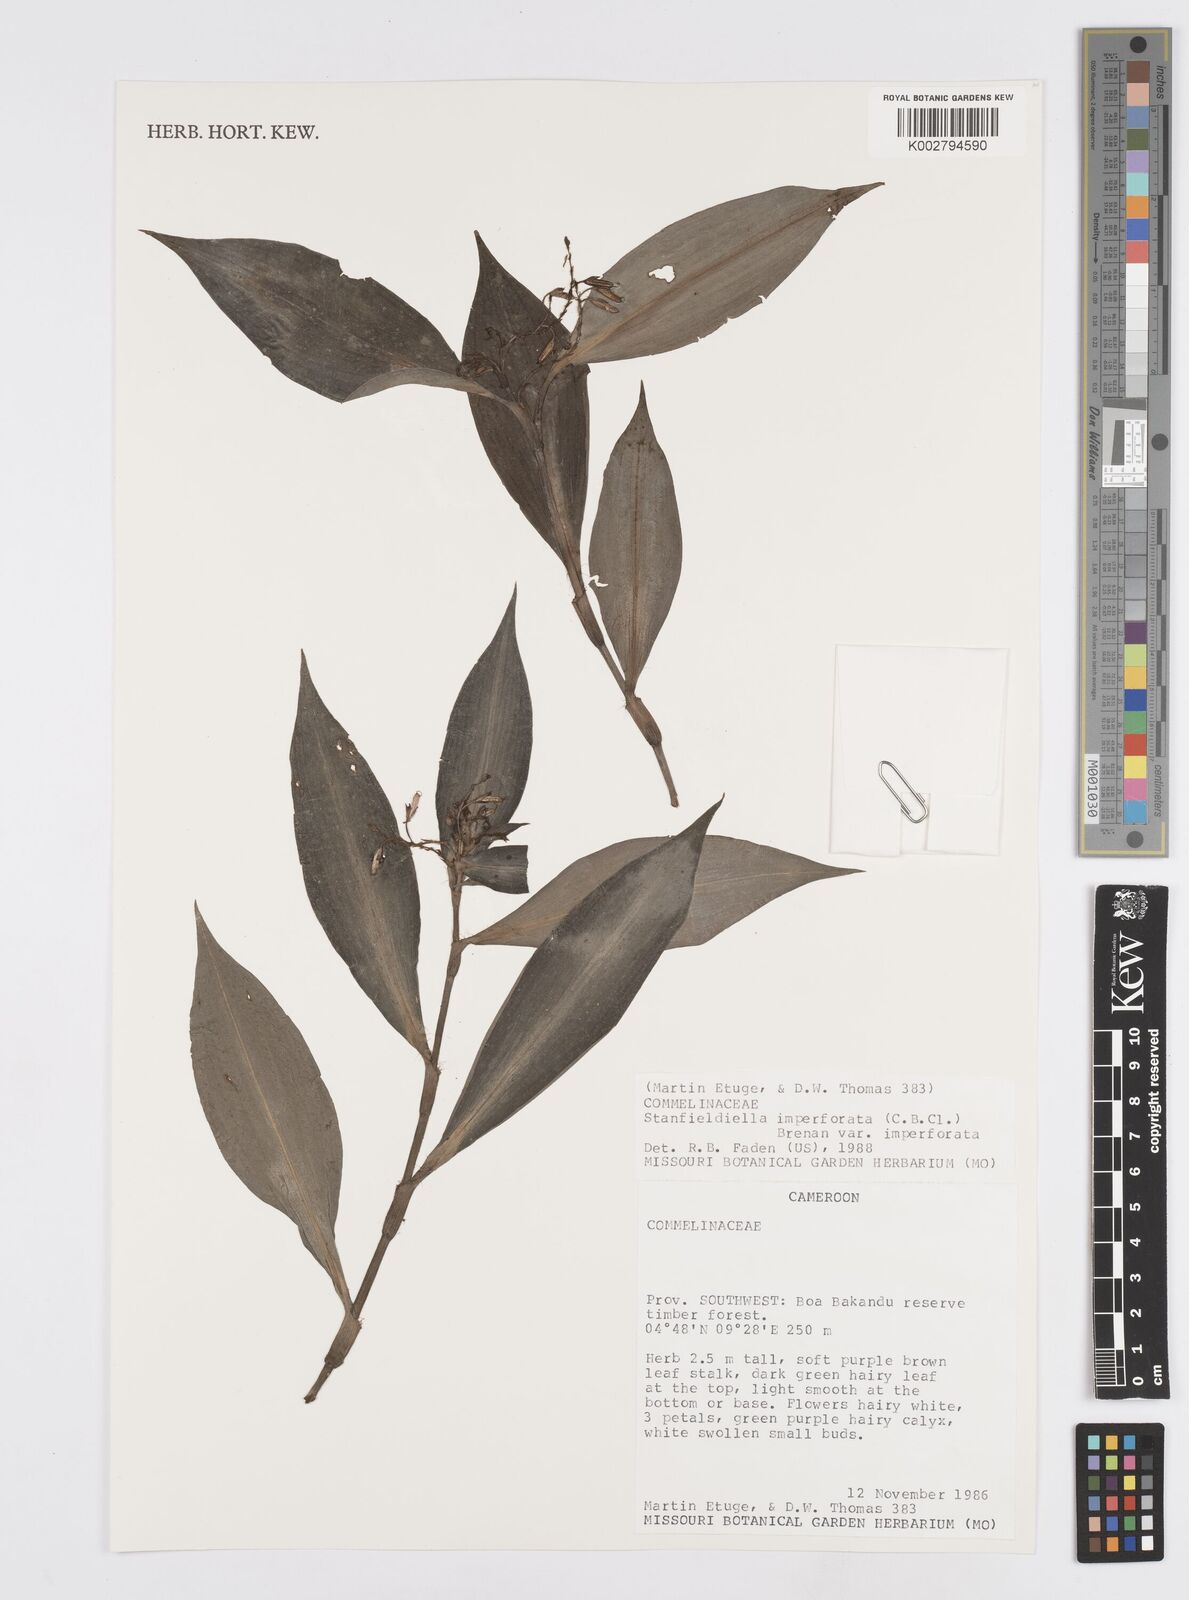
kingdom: Plantae
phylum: Tracheophyta
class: Liliopsida
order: Commelinales
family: Commelinaceae
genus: Stanfieldiella
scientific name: Stanfieldiella imperforata
